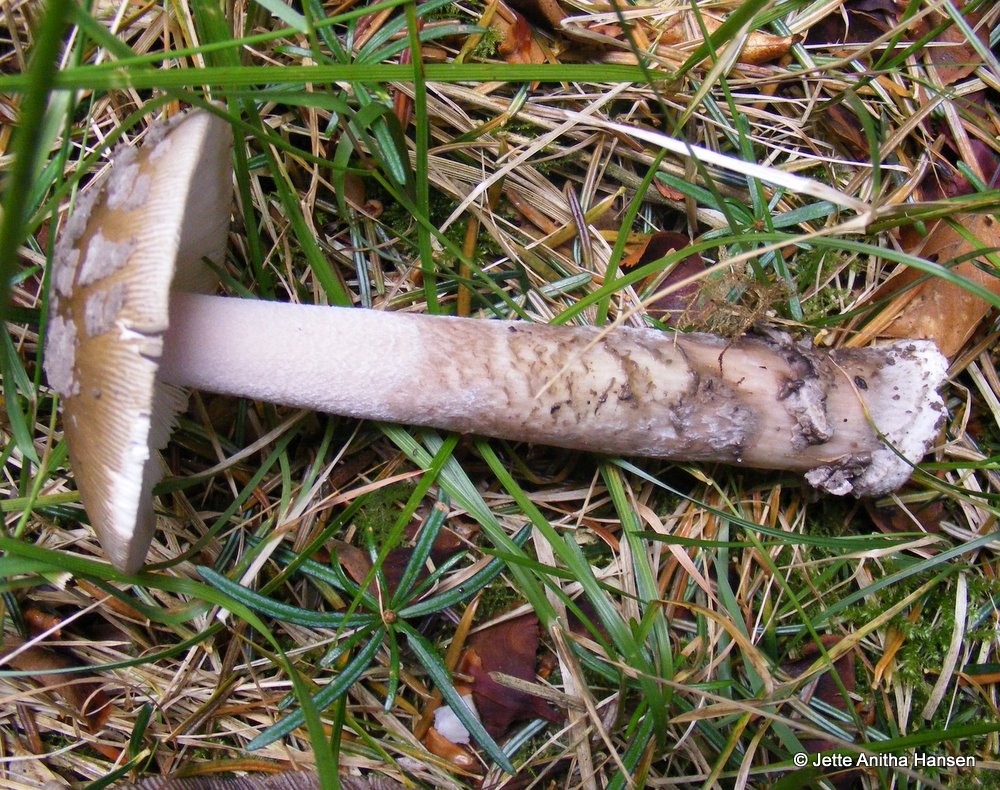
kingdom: Fungi
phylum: Basidiomycota
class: Agaricomycetes
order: Agaricales
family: Amanitaceae
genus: Amanita
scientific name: Amanita ceciliae
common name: stor kam-fluesvamp
